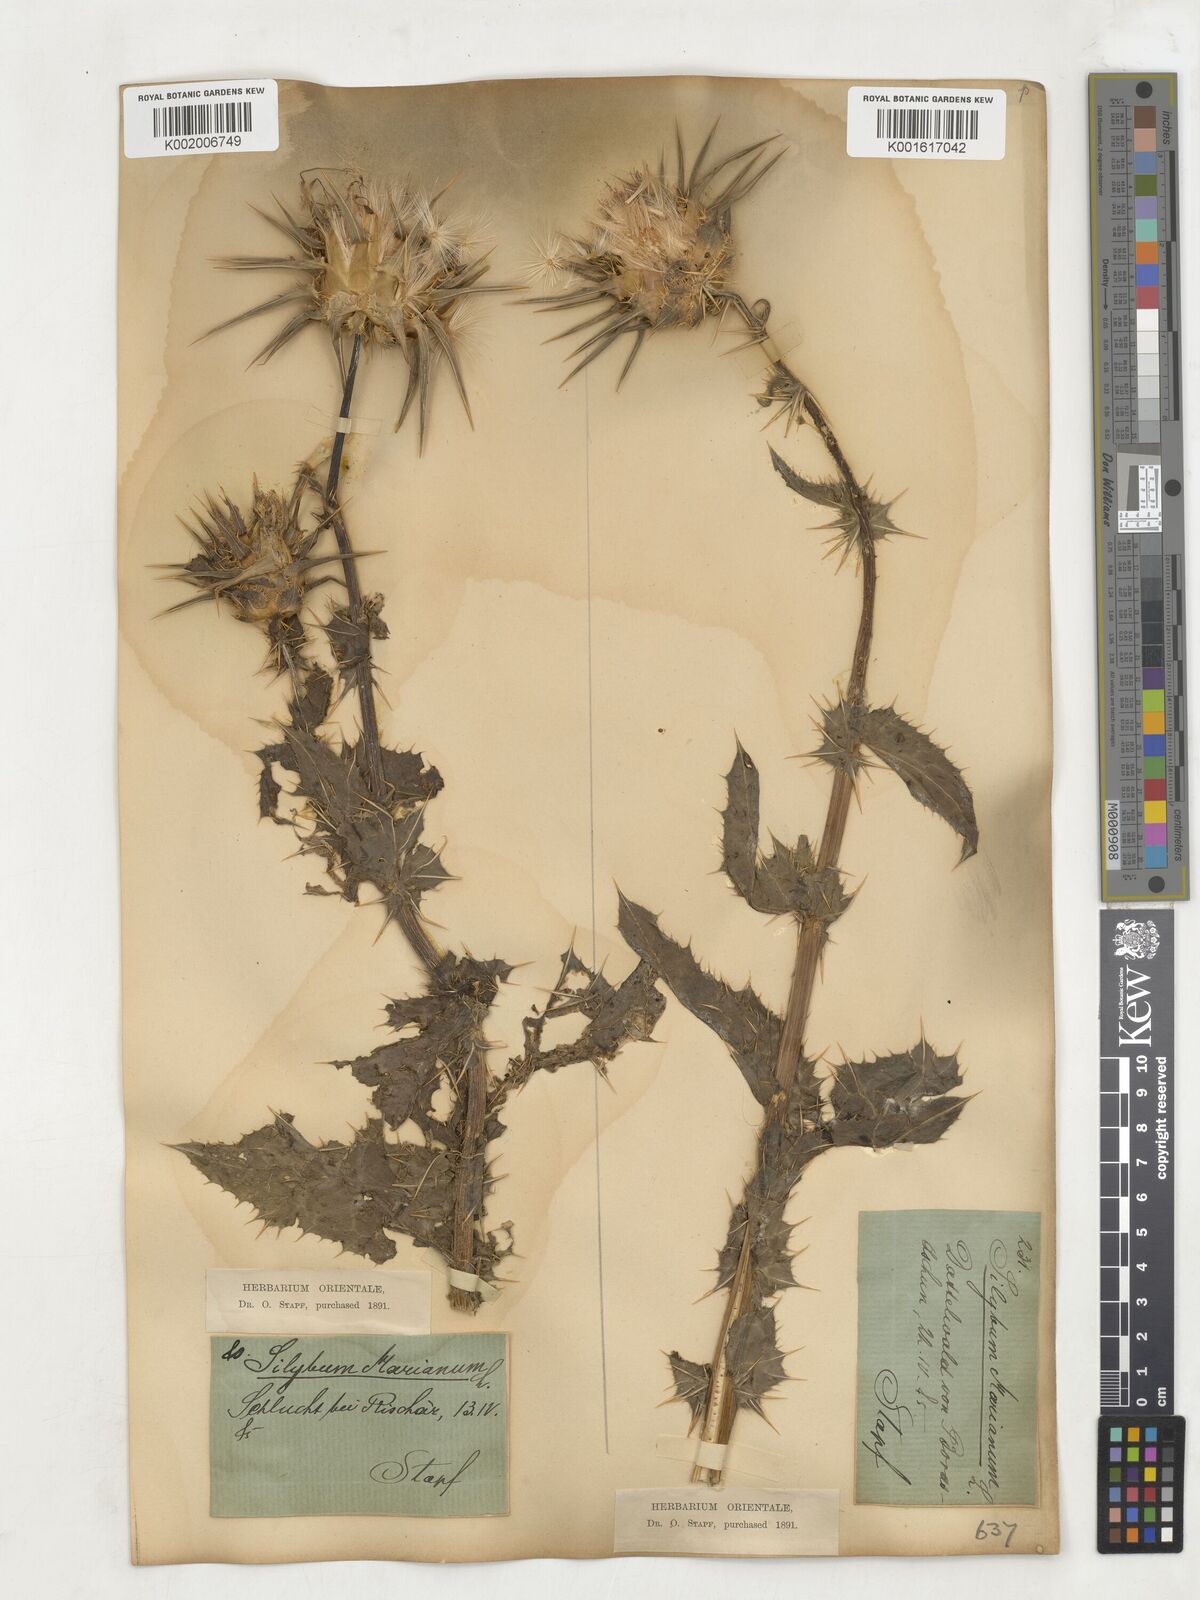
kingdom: Plantae
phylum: Tracheophyta
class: Magnoliopsida
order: Asterales
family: Asteraceae
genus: Silybum
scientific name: Silybum marianum
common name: Milk thistle
